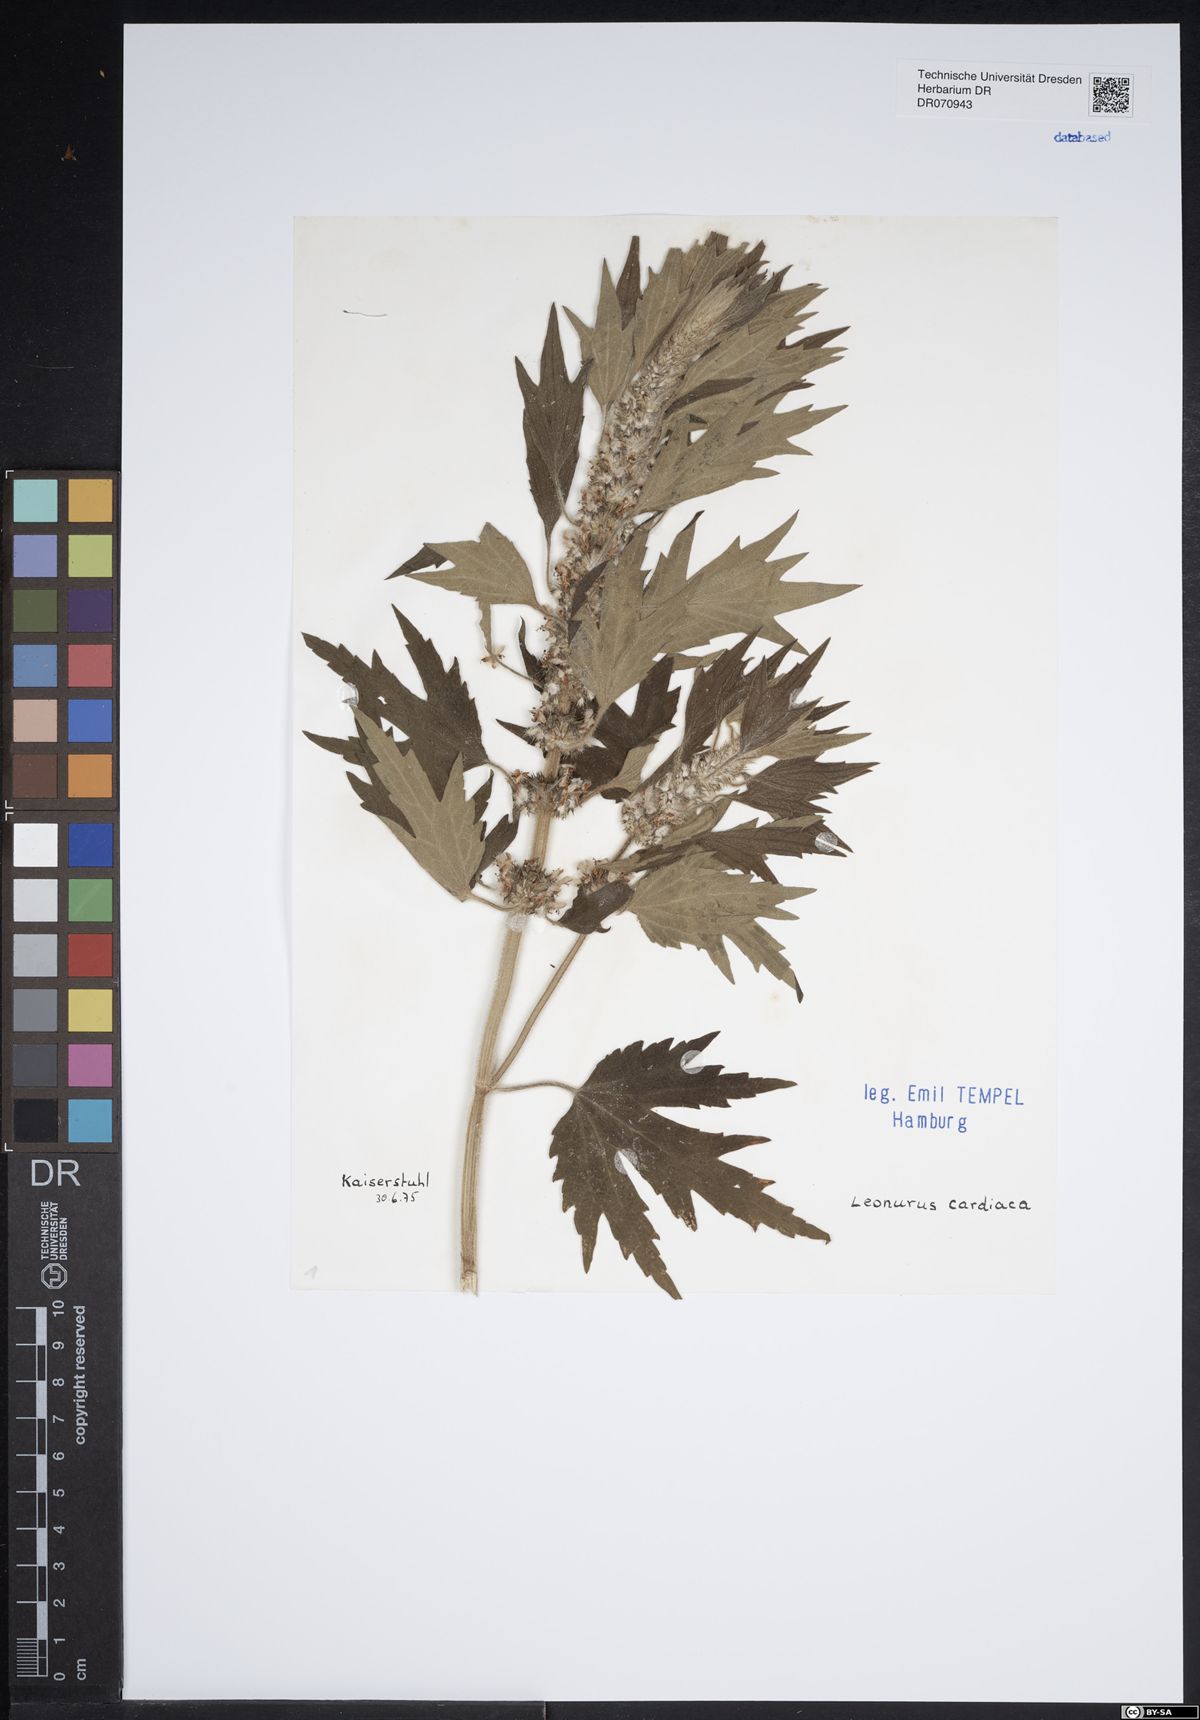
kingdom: Plantae
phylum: Tracheophyta
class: Magnoliopsida
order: Lamiales
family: Lamiaceae
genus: Leonurus
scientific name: Leonurus cardiaca
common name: Motherwort
